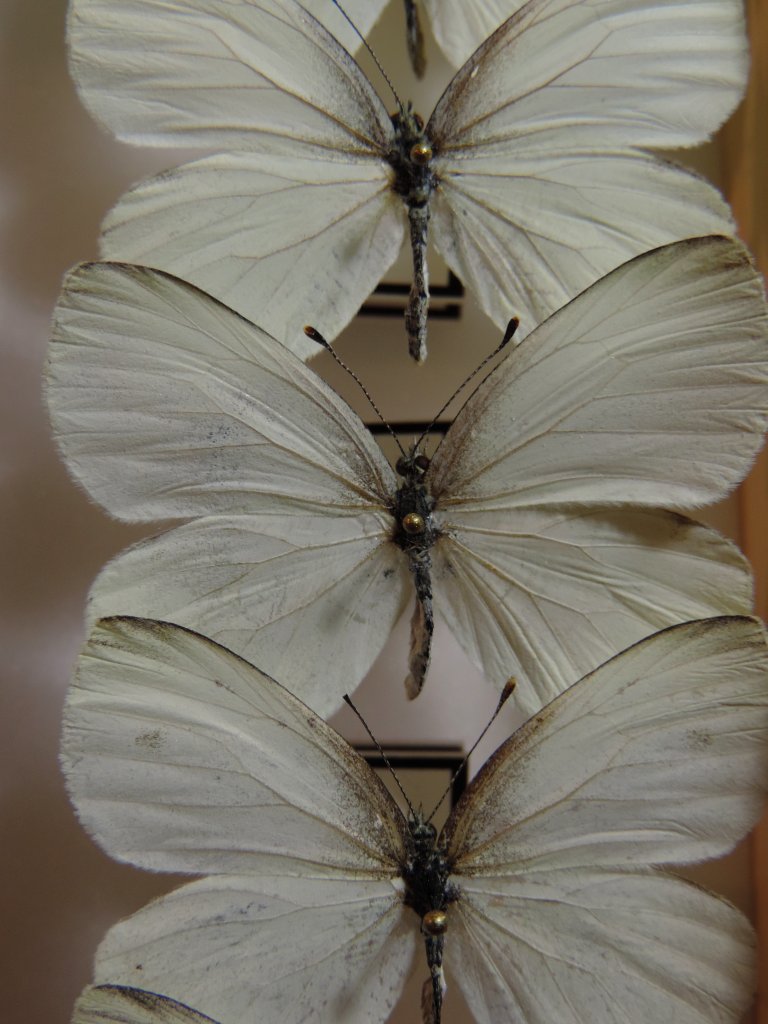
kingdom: Animalia
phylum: Arthropoda
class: Insecta
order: Lepidoptera
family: Pieridae
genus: Pieris
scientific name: Pieris oleracea
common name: Mustard White
